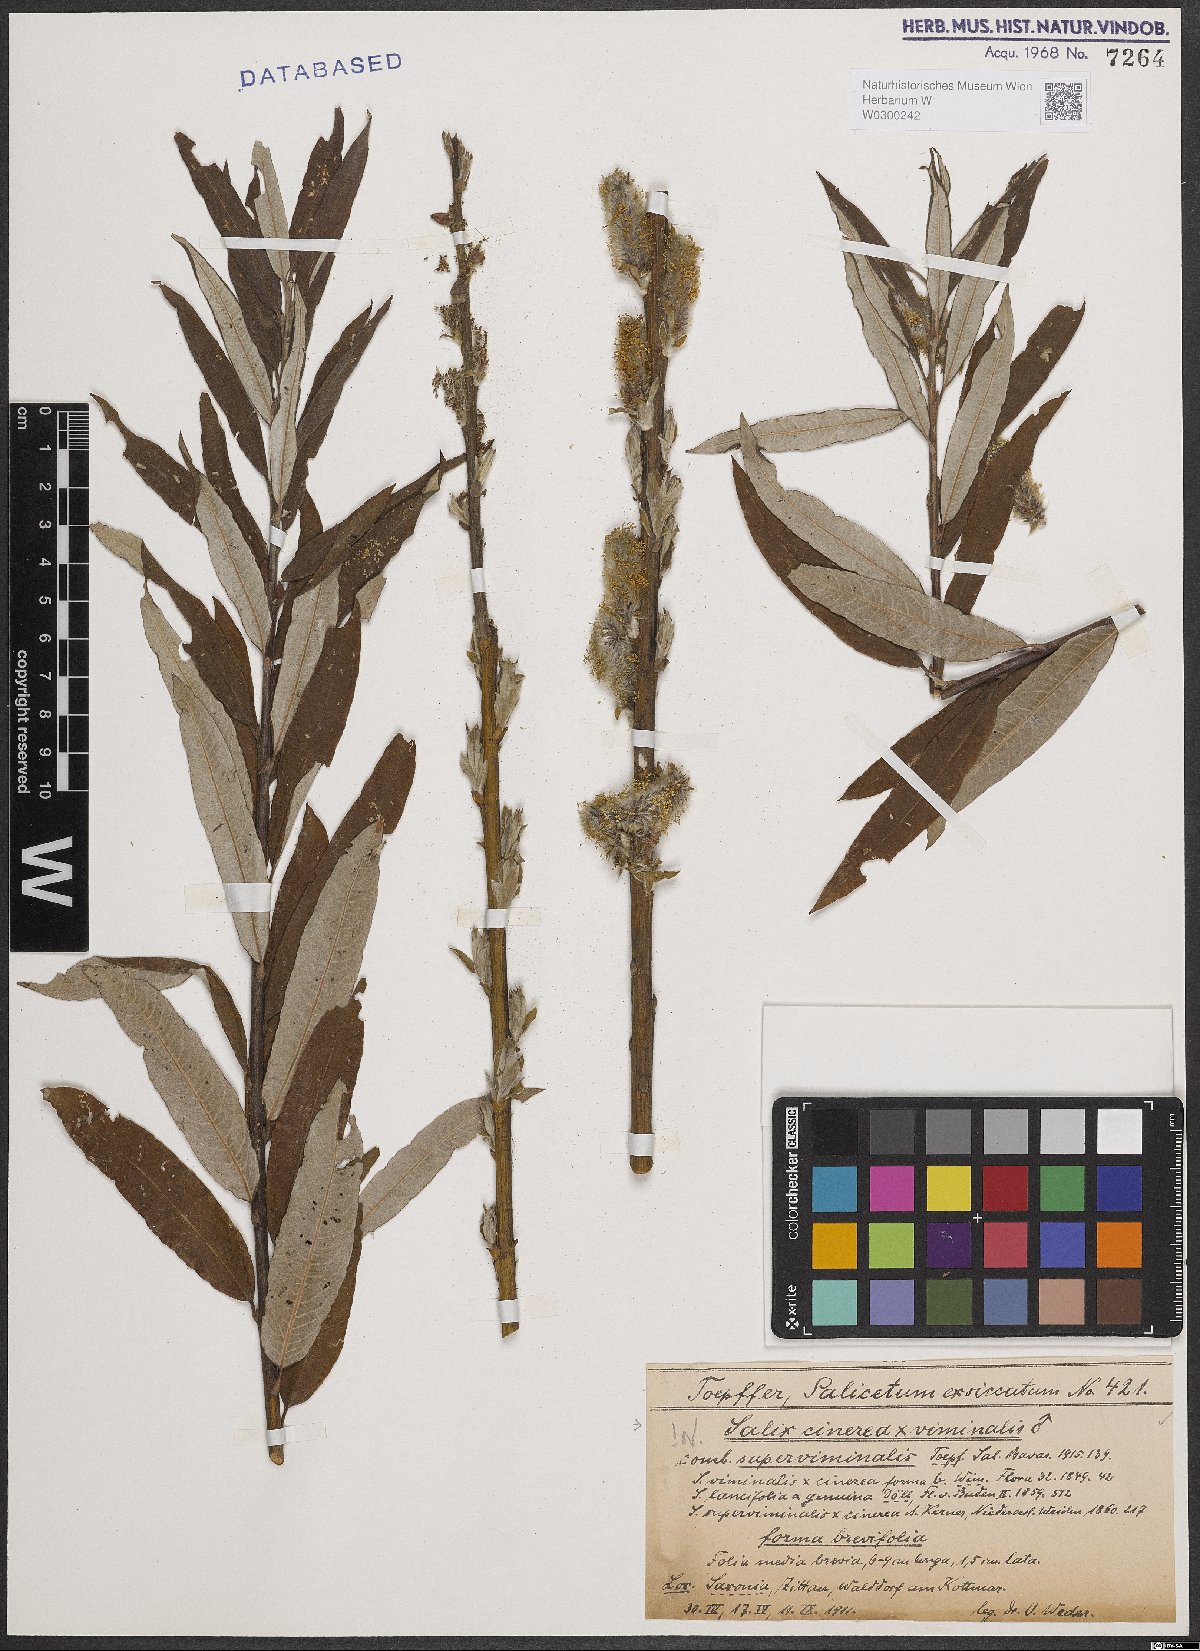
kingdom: Plantae
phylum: Tracheophyta
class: Magnoliopsida
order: Malpighiales
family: Salicaceae
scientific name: Salicaceae
